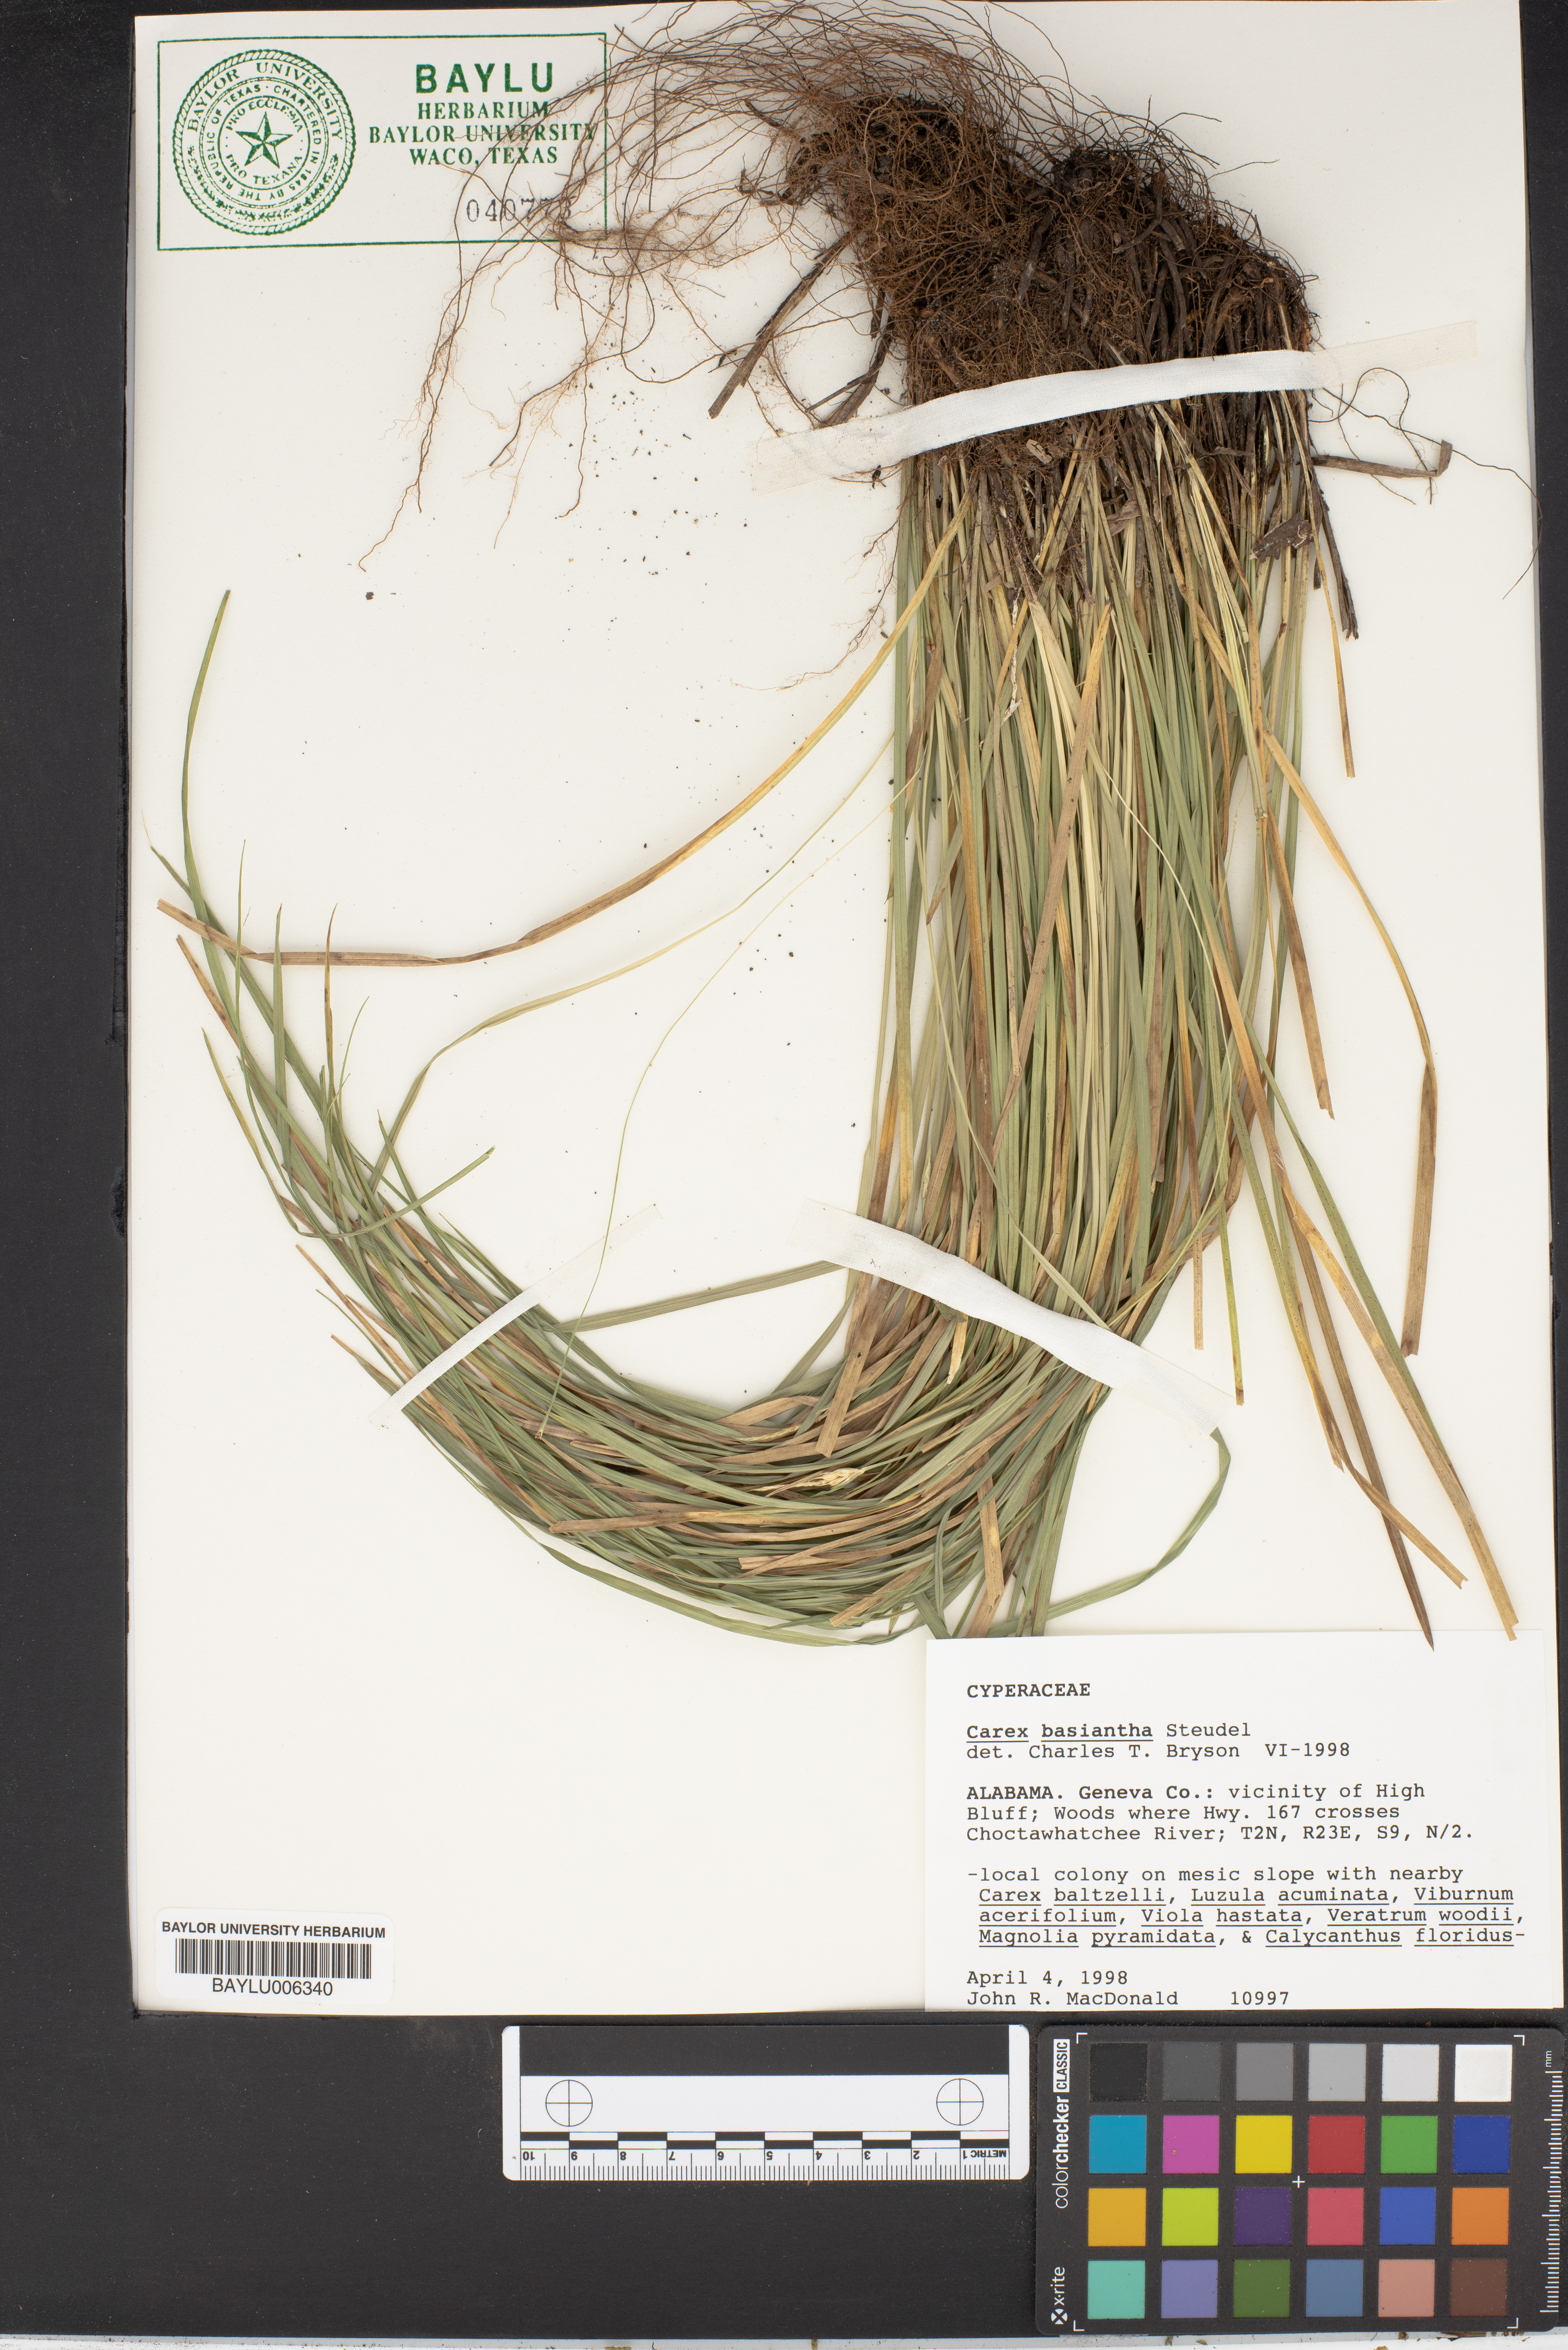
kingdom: Plantae
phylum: Tracheophyta
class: Liliopsida
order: Poales
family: Cyperaceae
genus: Carex
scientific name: Carex basiantha
